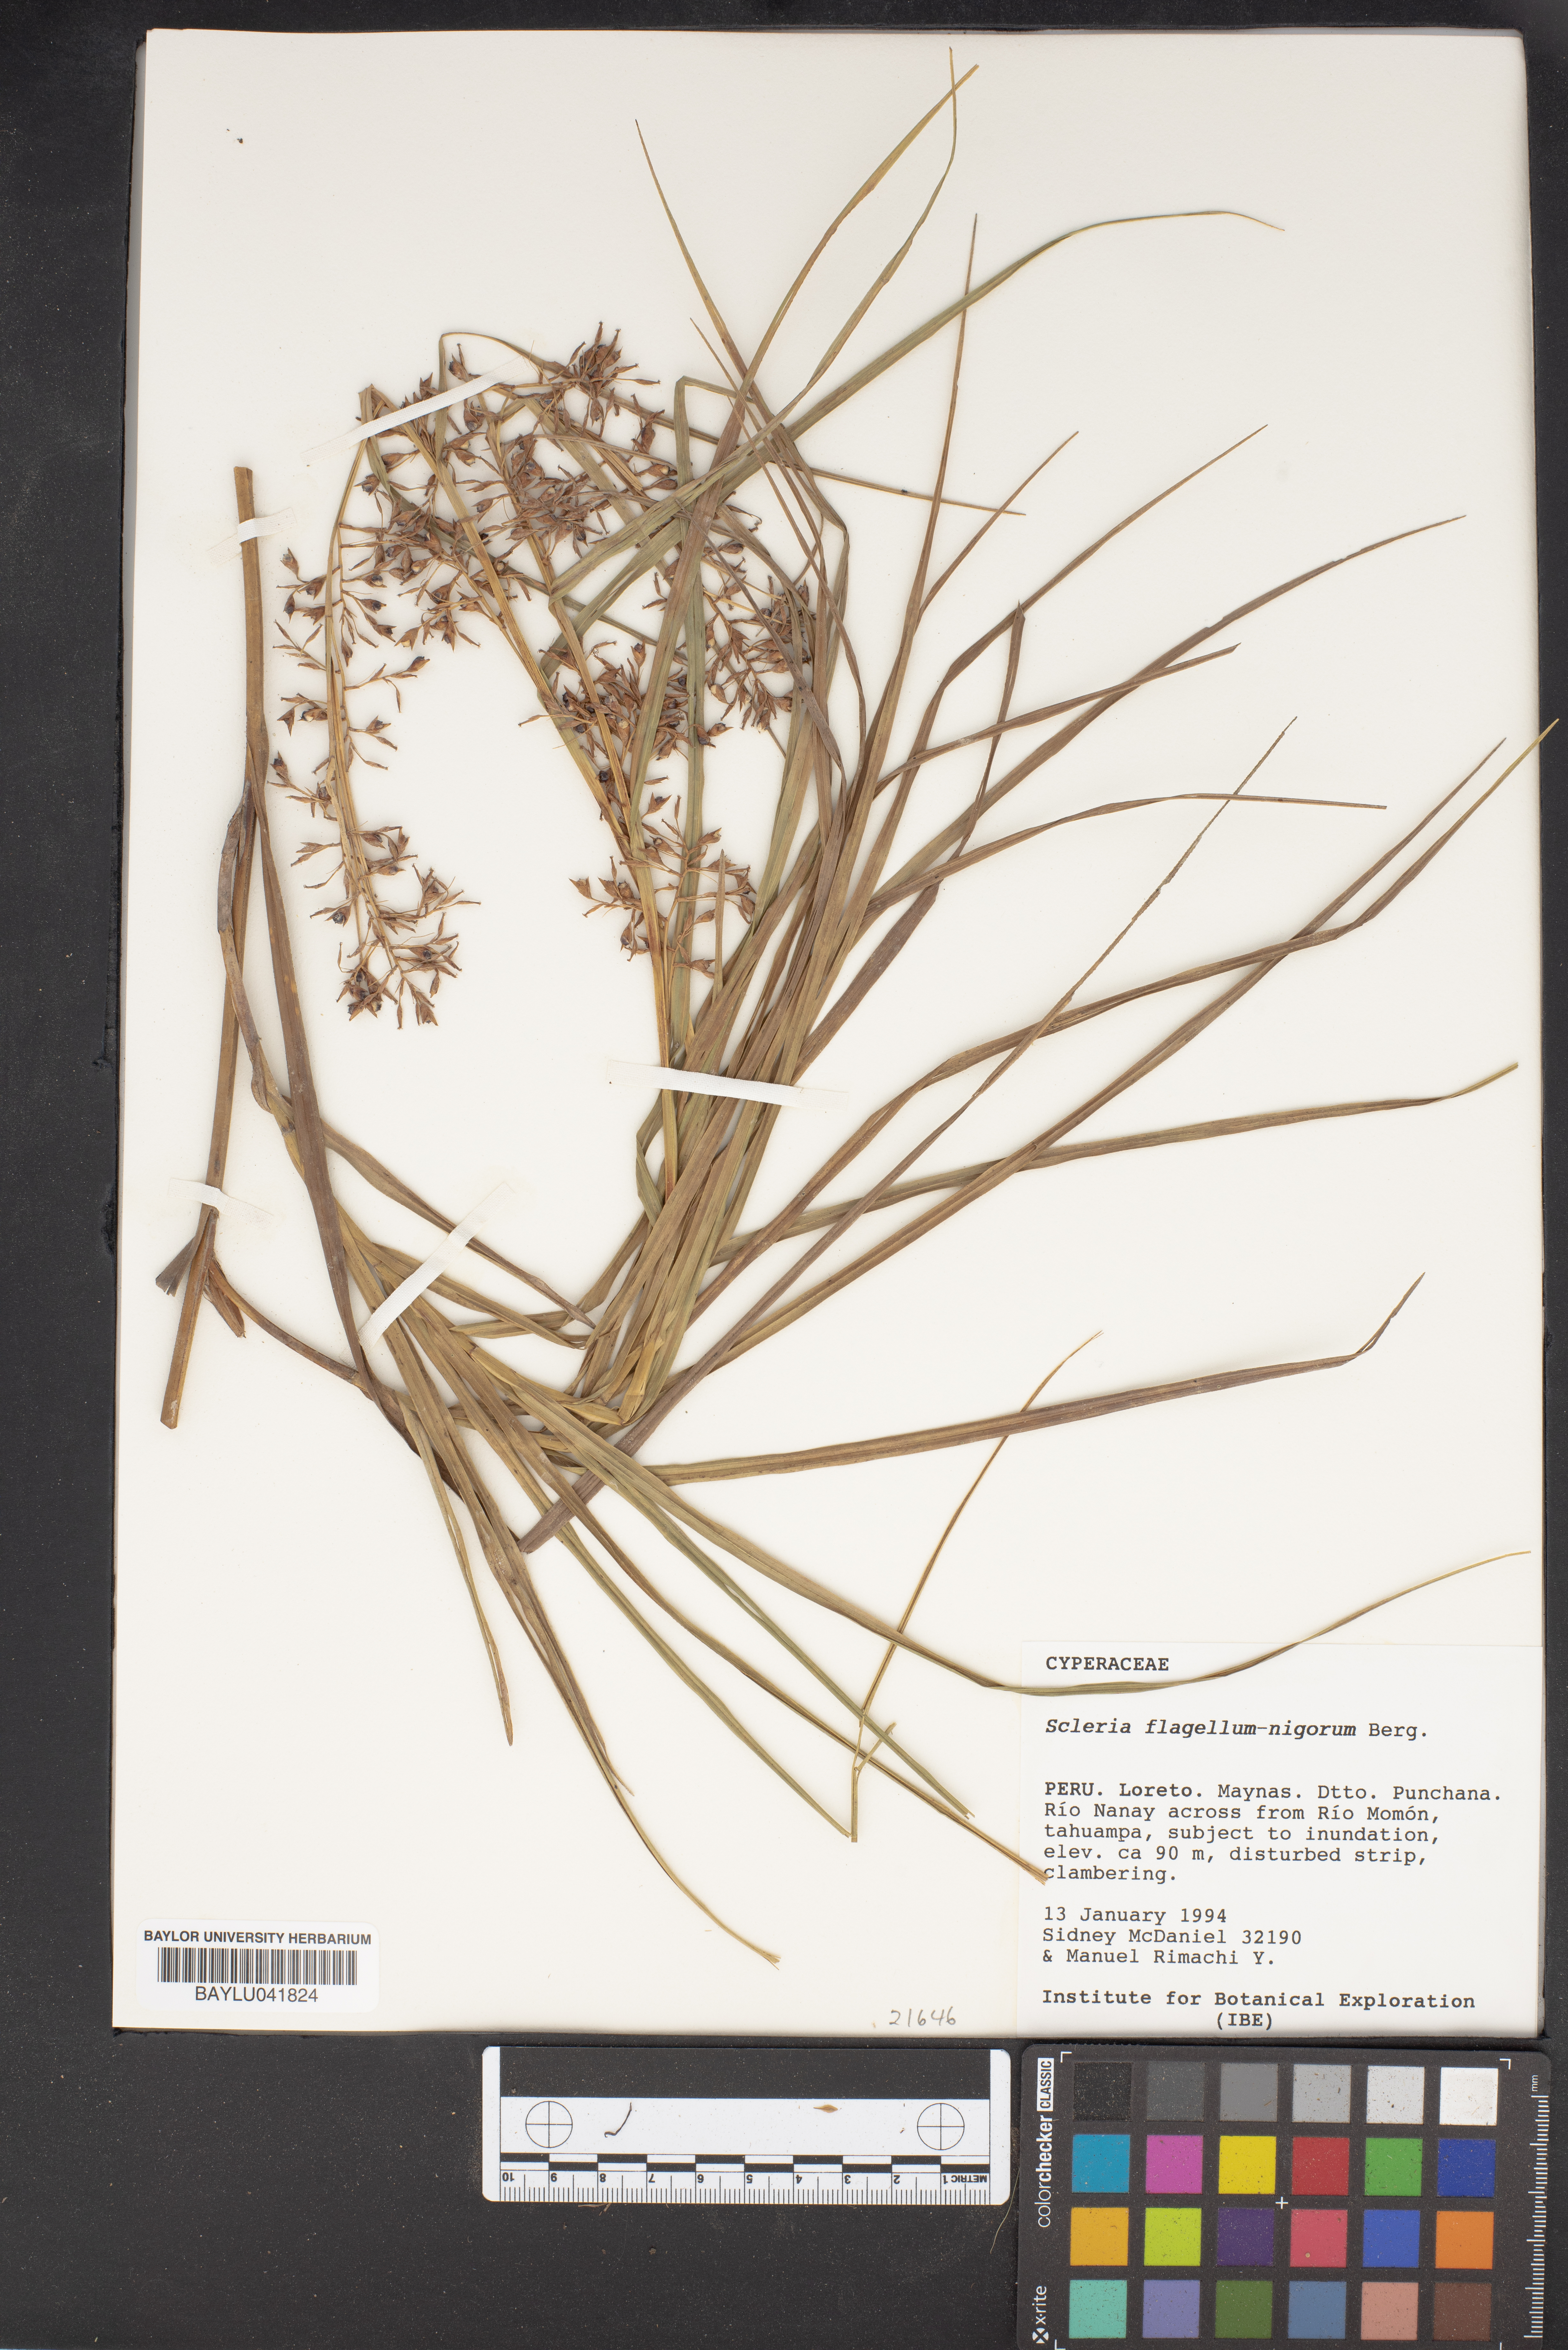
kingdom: Plantae
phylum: Tracheophyta
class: Liliopsida
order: Poales
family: Cyperaceae
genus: Scleria
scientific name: Scleria flagellum-nigrorum
